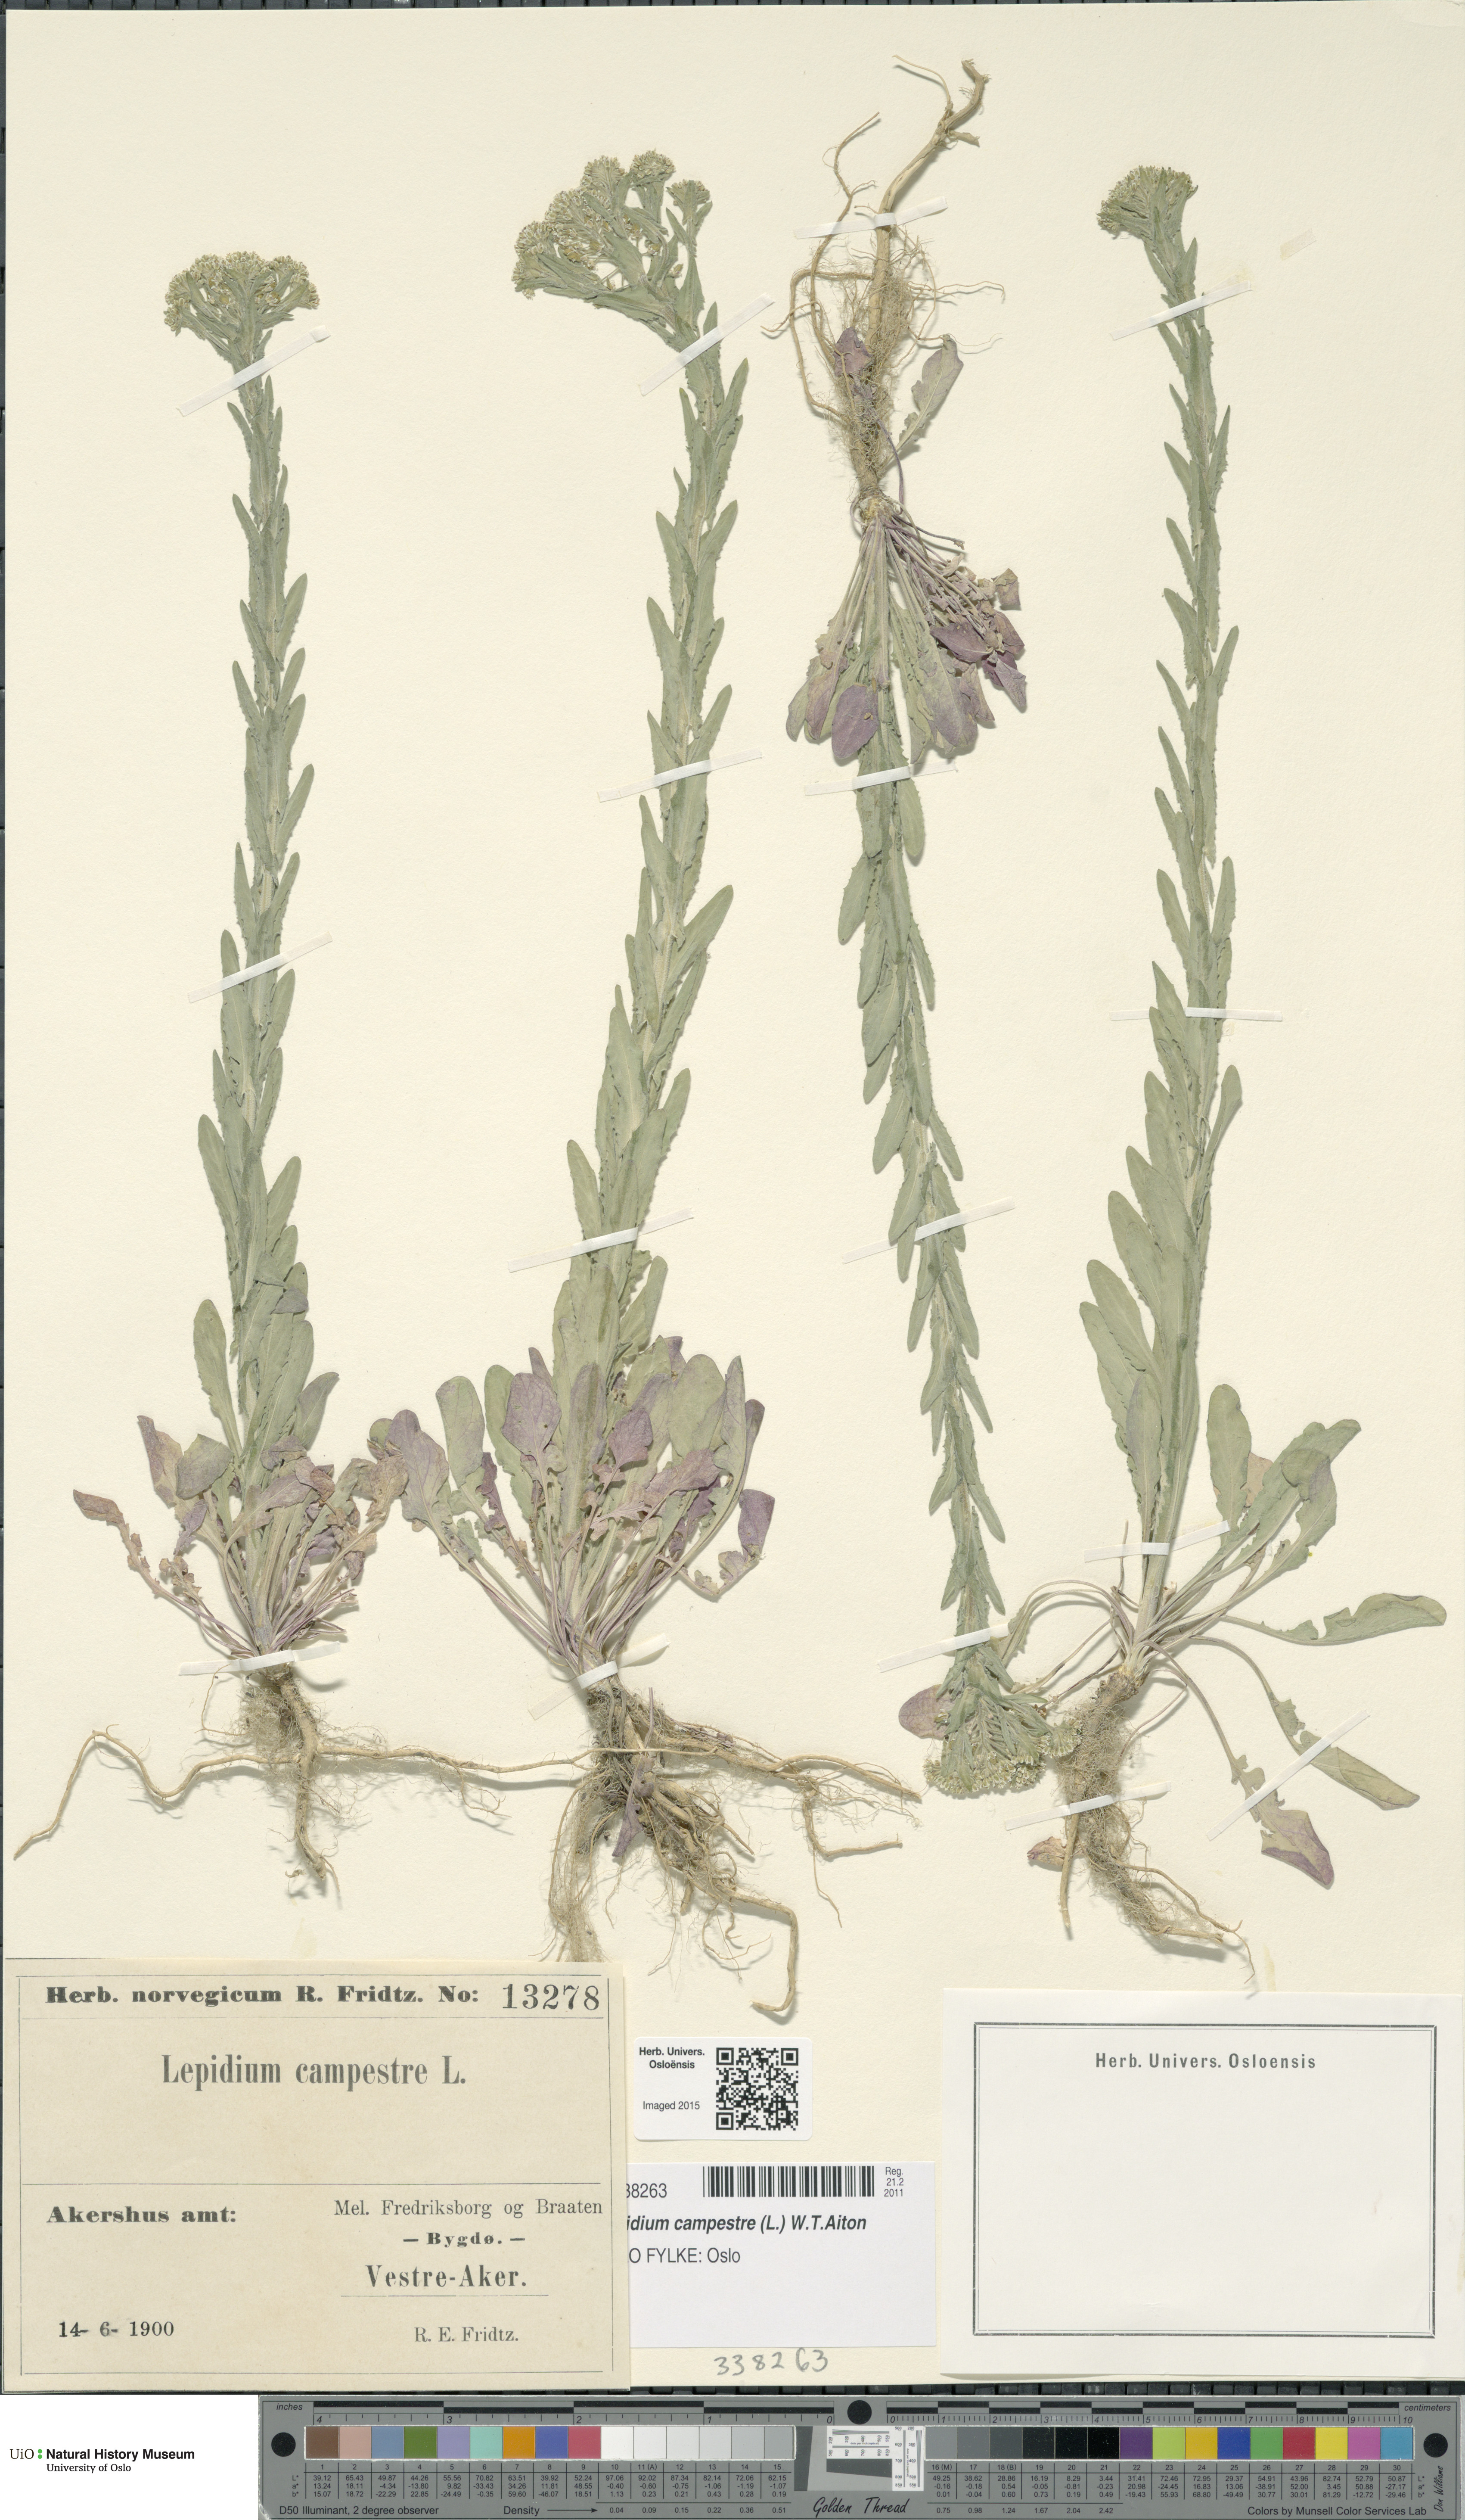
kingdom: Plantae
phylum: Tracheophyta
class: Magnoliopsida
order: Brassicales
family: Brassicaceae
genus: Lepidium
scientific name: Lepidium campestre
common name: Field pepperwort
